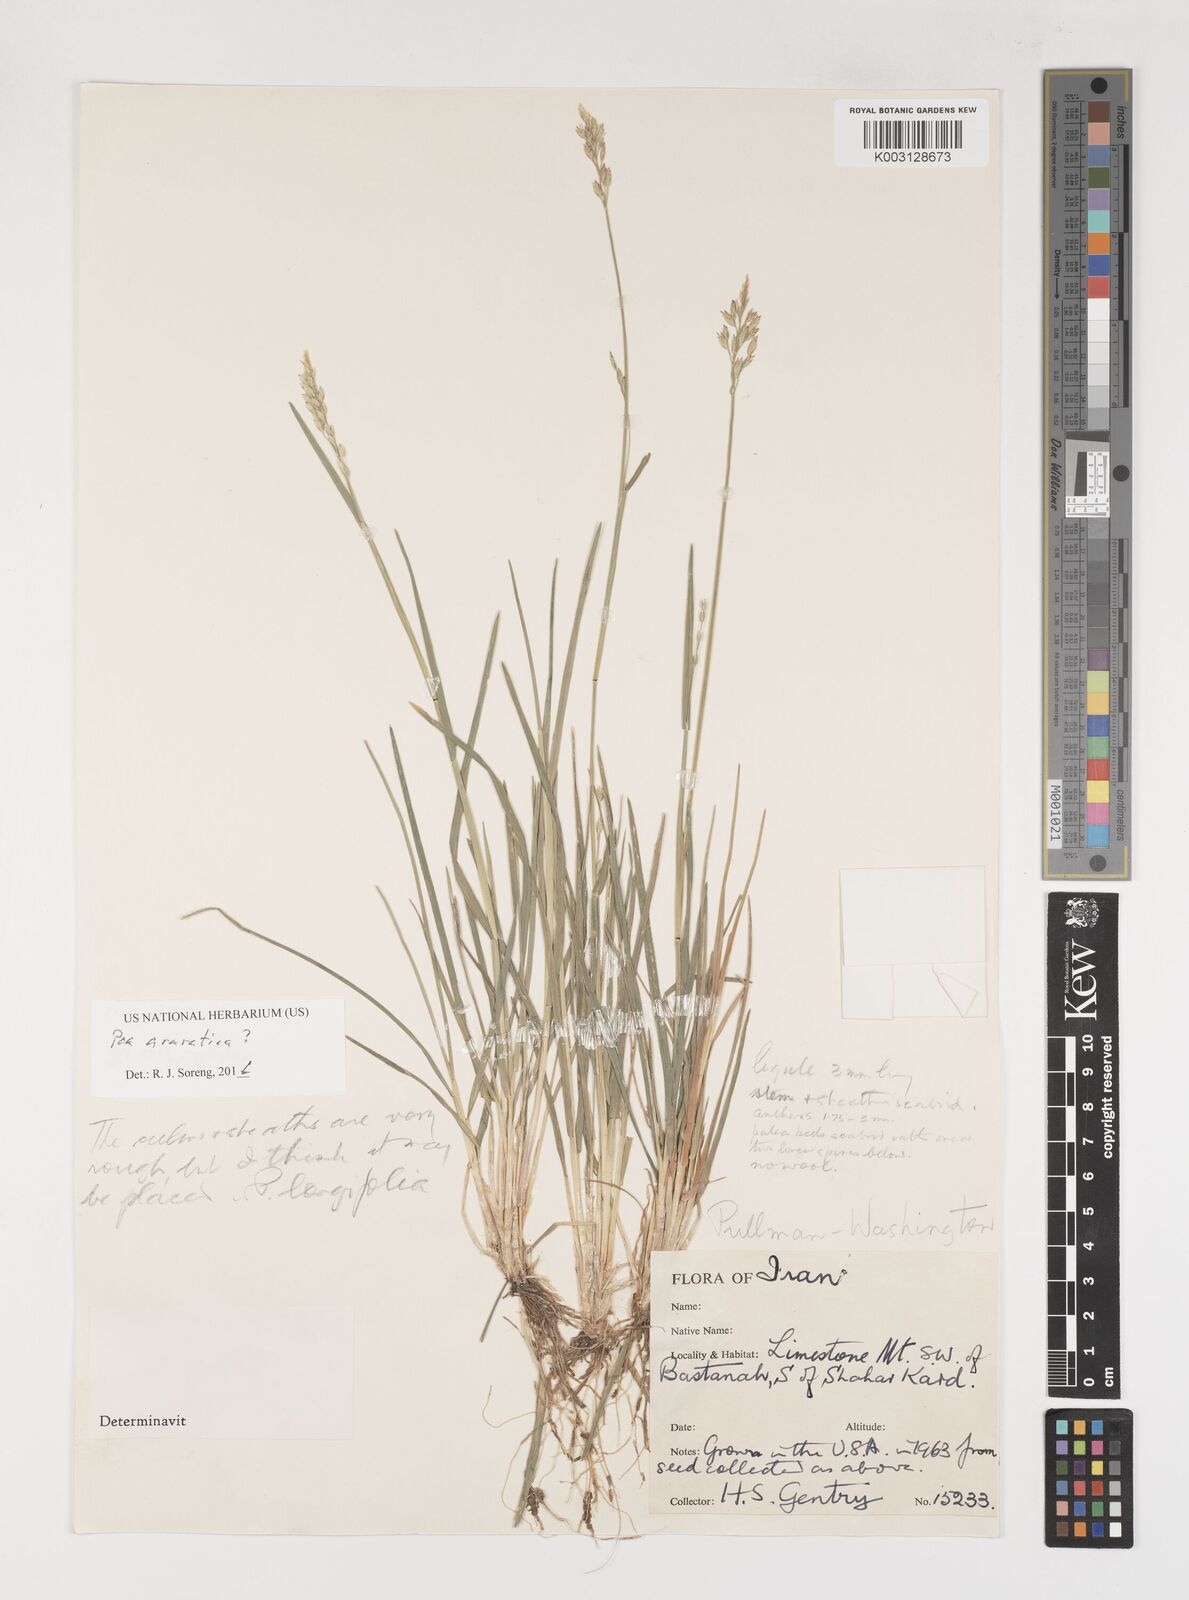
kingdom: Plantae
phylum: Tracheophyta
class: Liliopsida
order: Poales
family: Poaceae
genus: Poa
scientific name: Poa araratica
